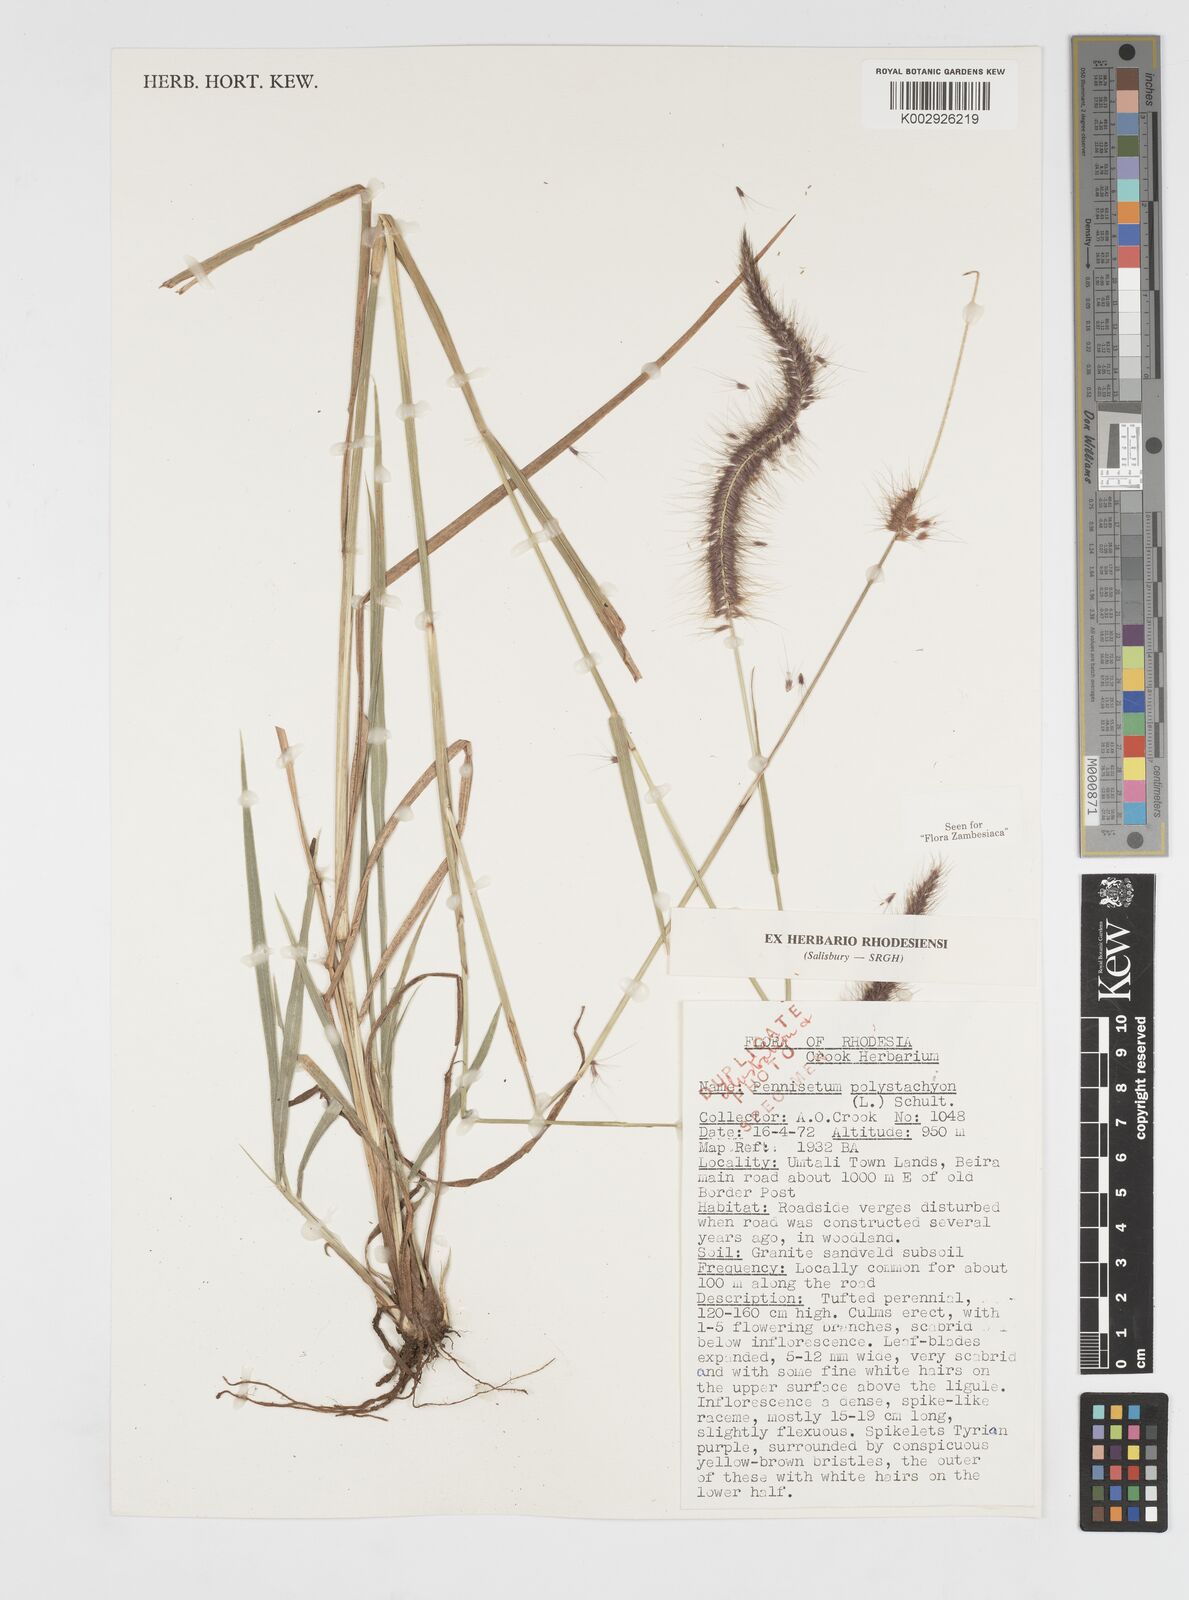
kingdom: Plantae
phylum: Tracheophyta
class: Liliopsida
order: Poales
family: Poaceae
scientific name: Poaceae
